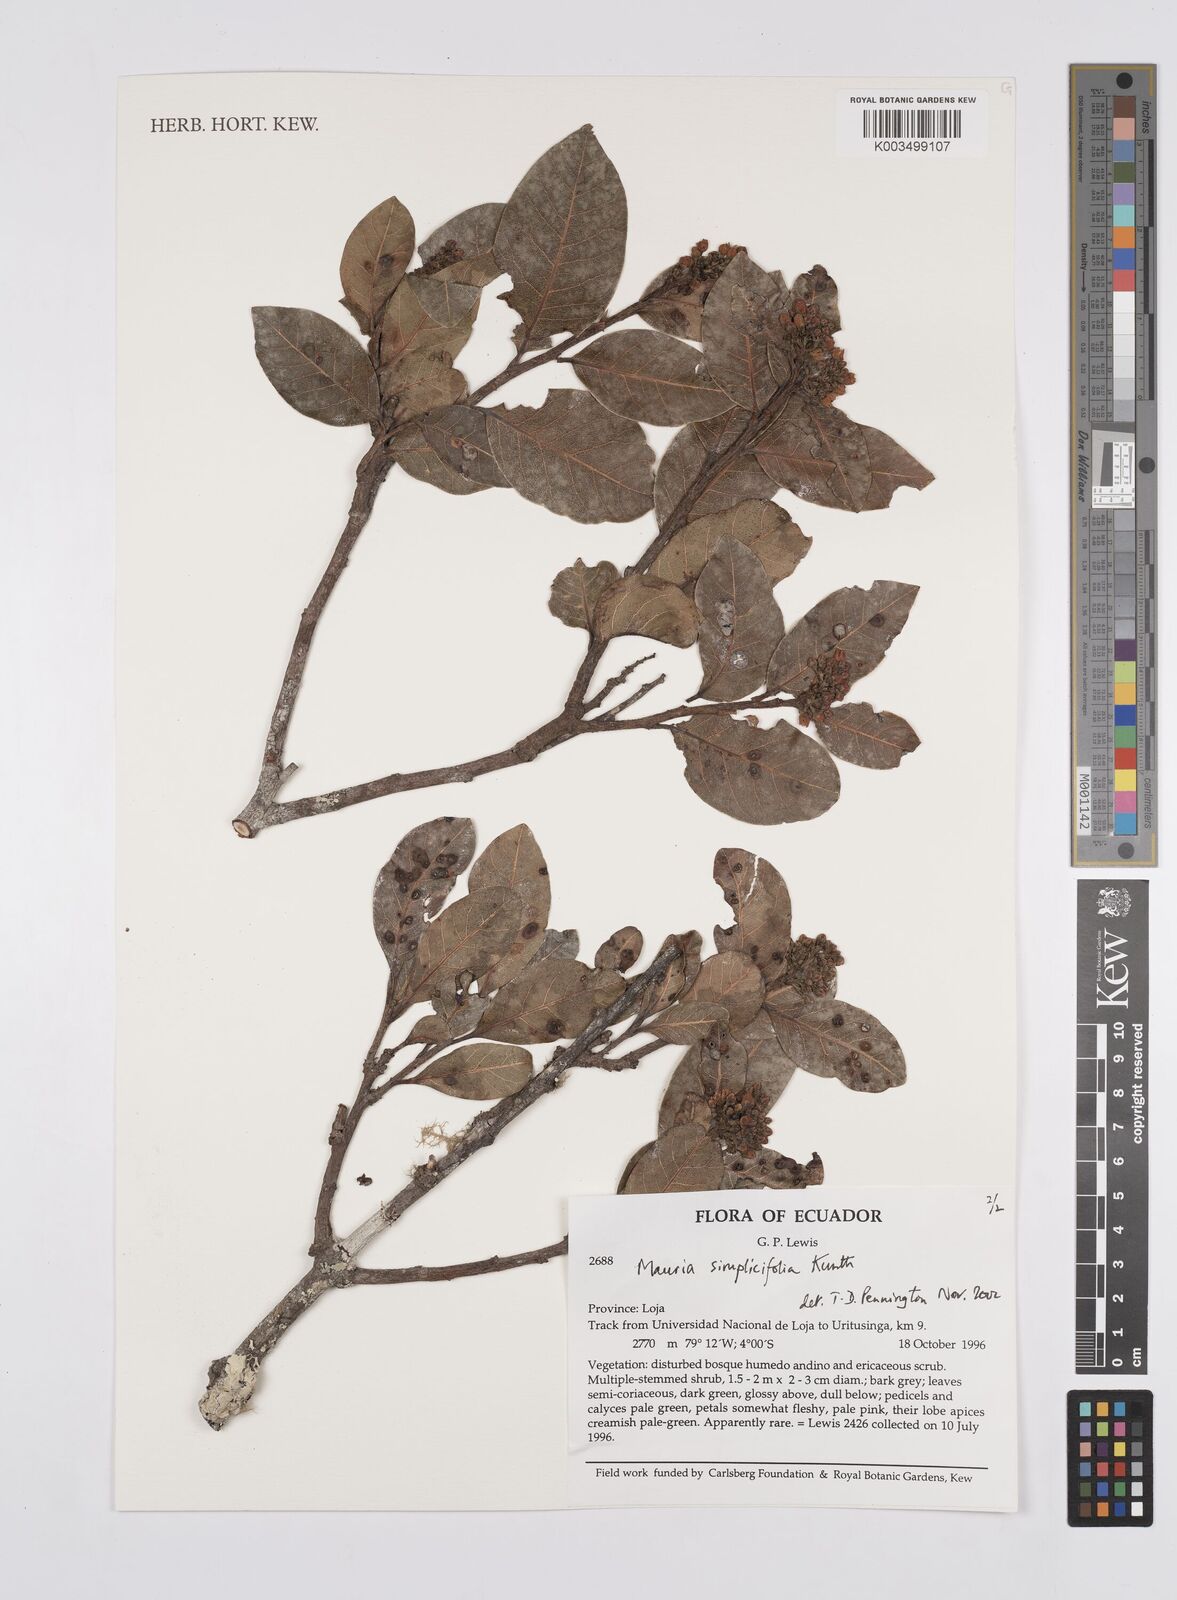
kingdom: Plantae
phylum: Tracheophyta
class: Magnoliopsida
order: Sapindales
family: Anacardiaceae
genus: Mauria
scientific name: Mauria simplicifolia
